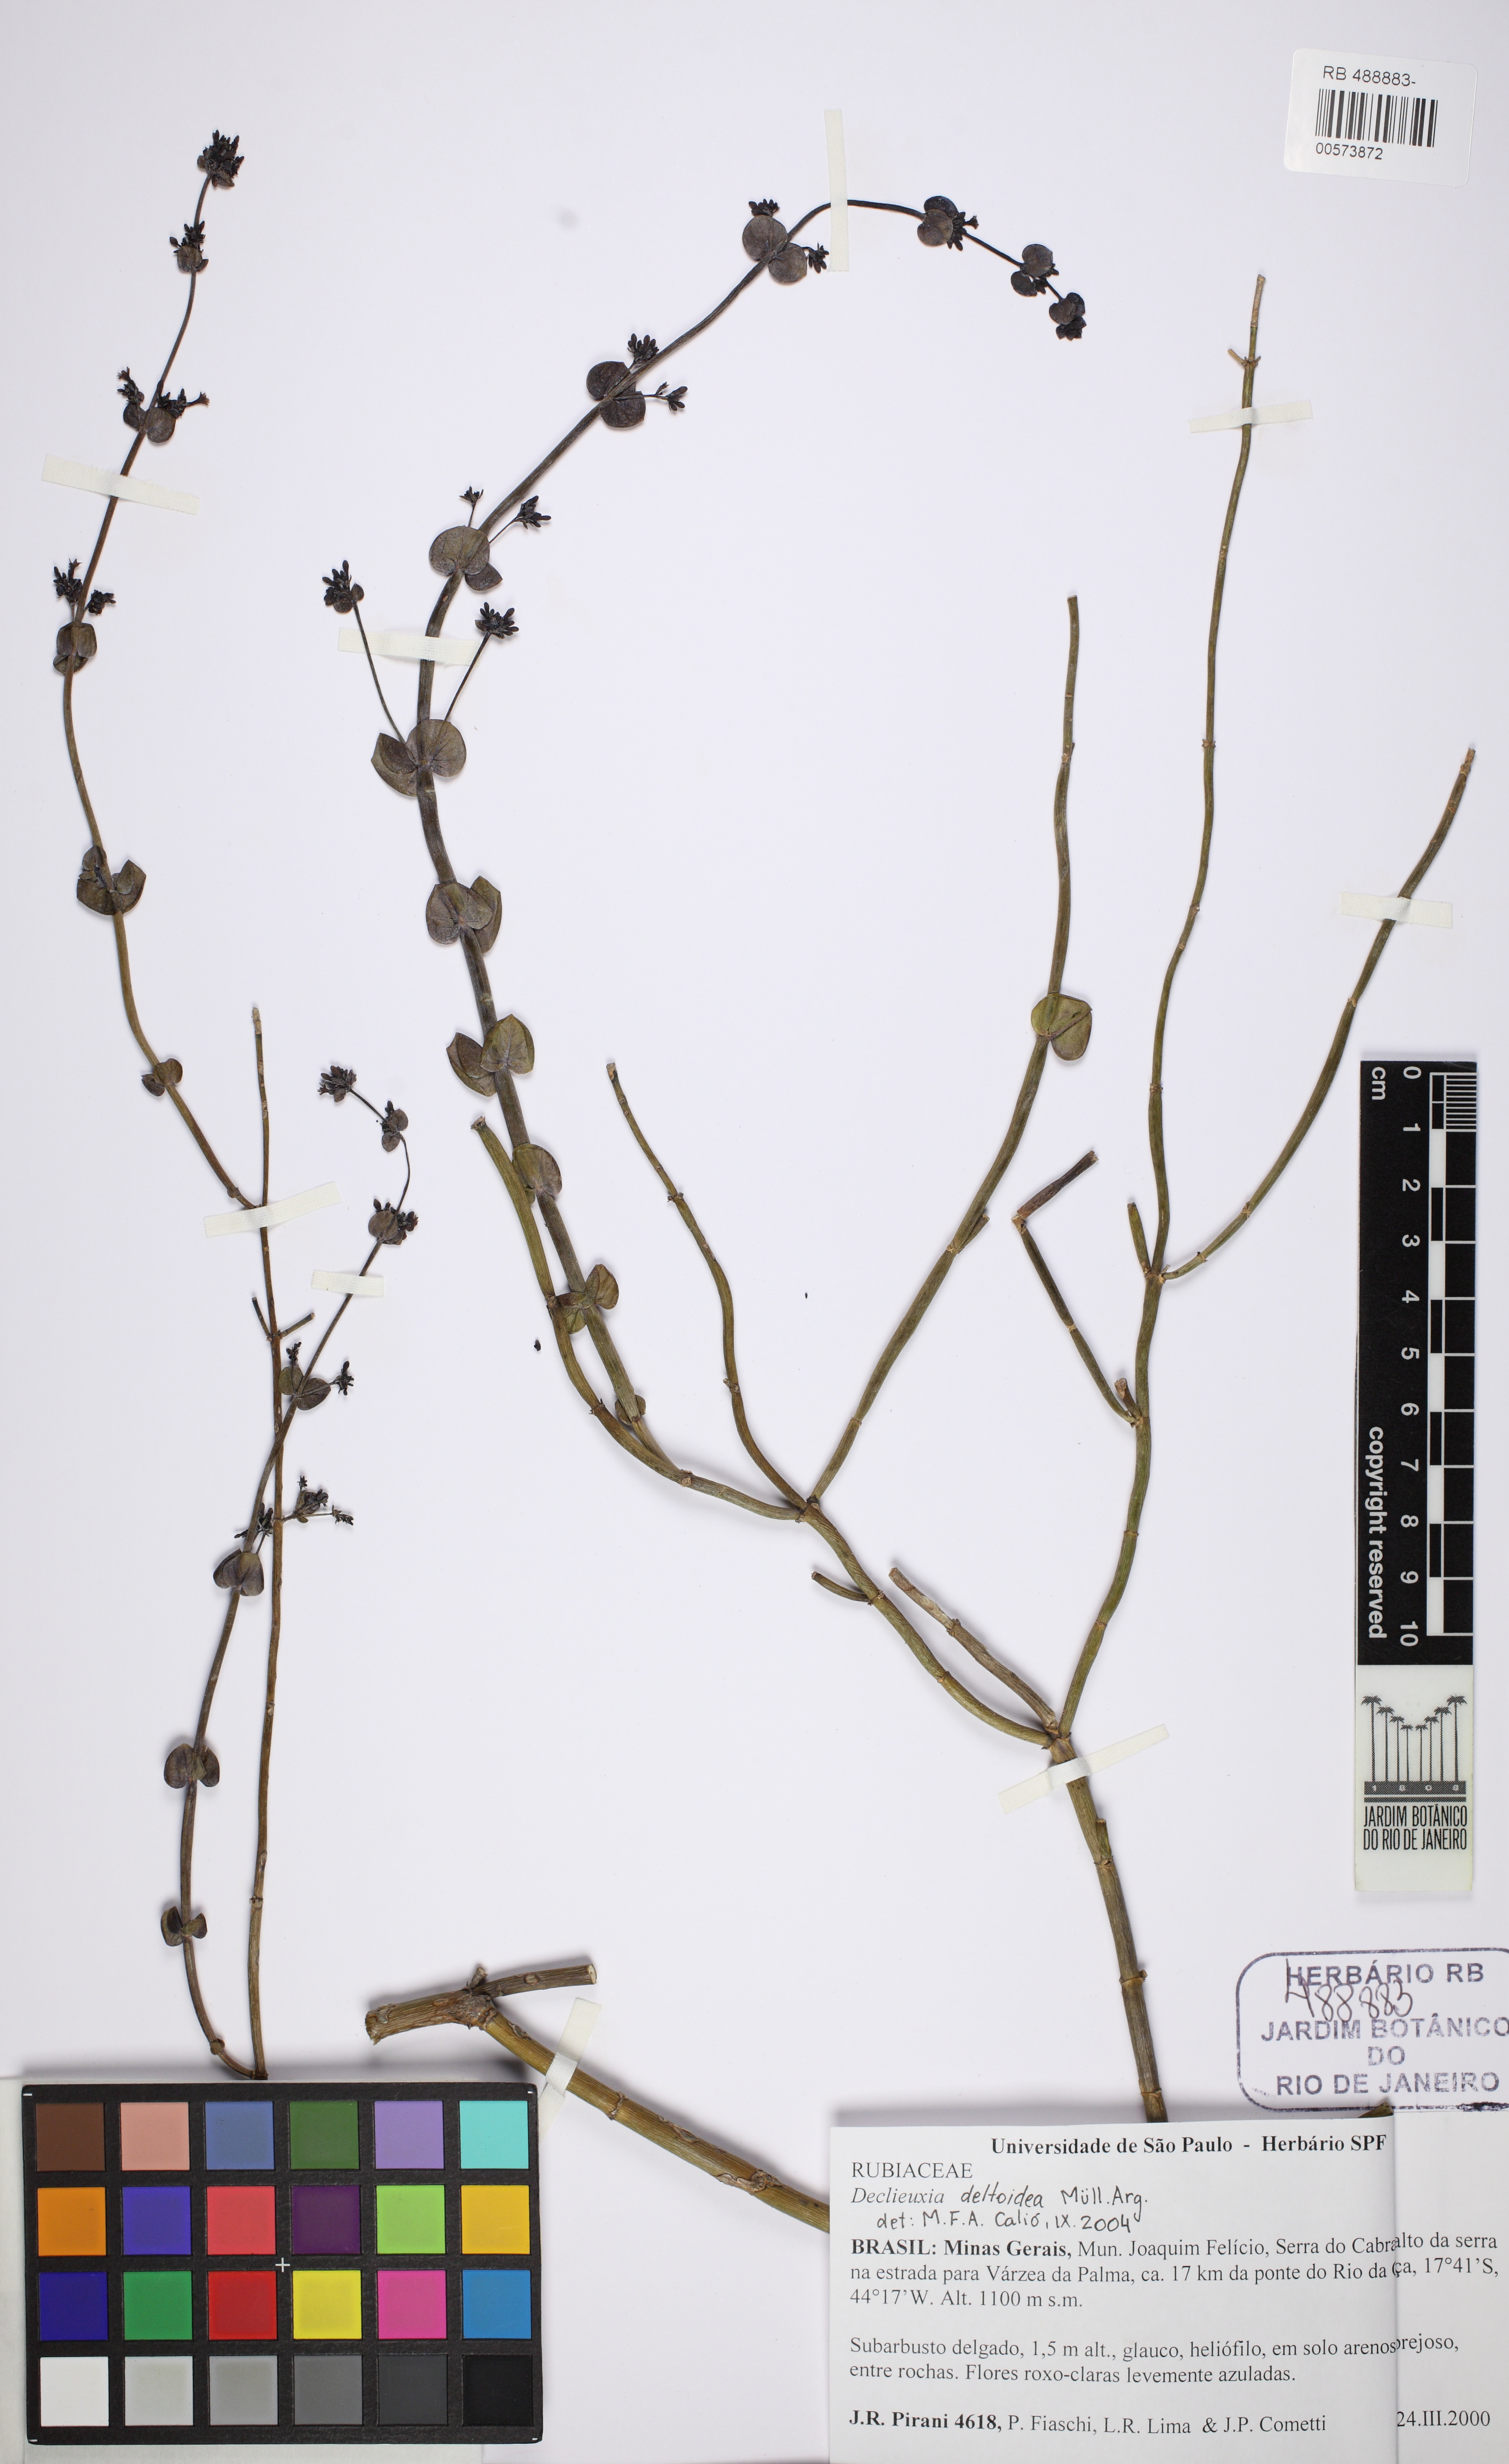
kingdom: Plantae
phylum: Tracheophyta
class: Magnoliopsida
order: Gentianales
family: Rubiaceae
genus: Declieuxia
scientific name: Declieuxia deltoidea
